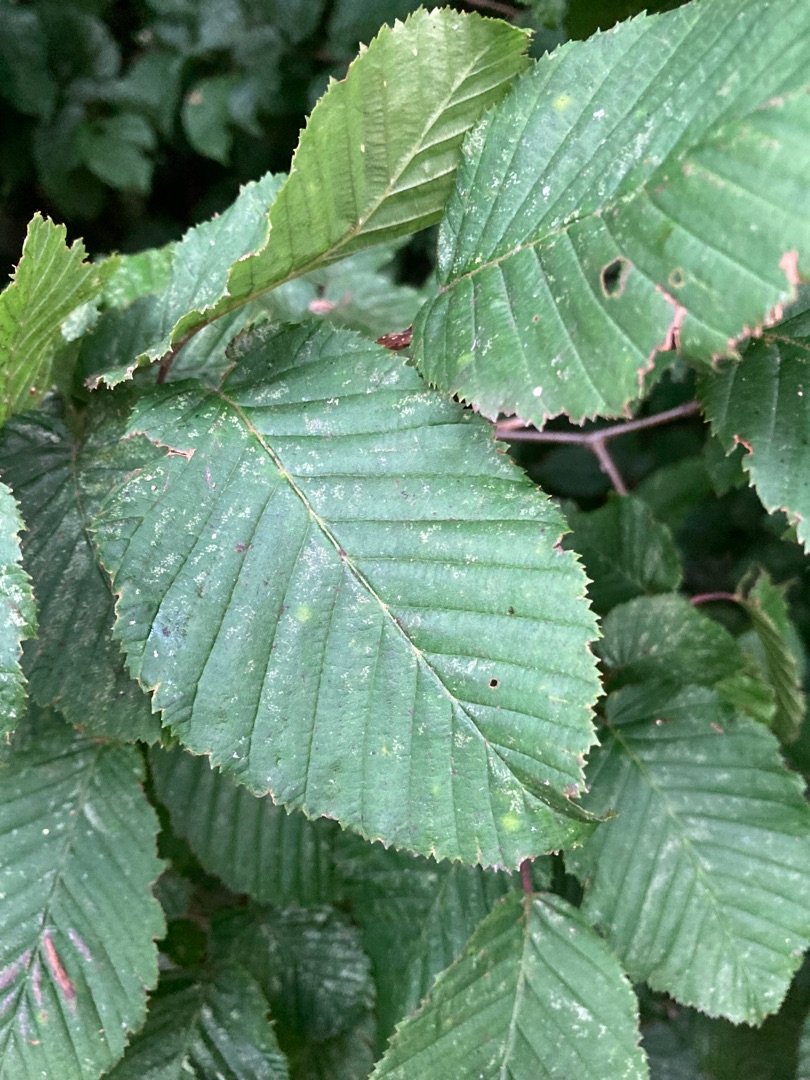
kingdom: Plantae
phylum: Tracheophyta
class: Magnoliopsida
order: Fagales
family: Betulaceae
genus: Carpinus
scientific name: Carpinus betulus
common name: Avnbøg
